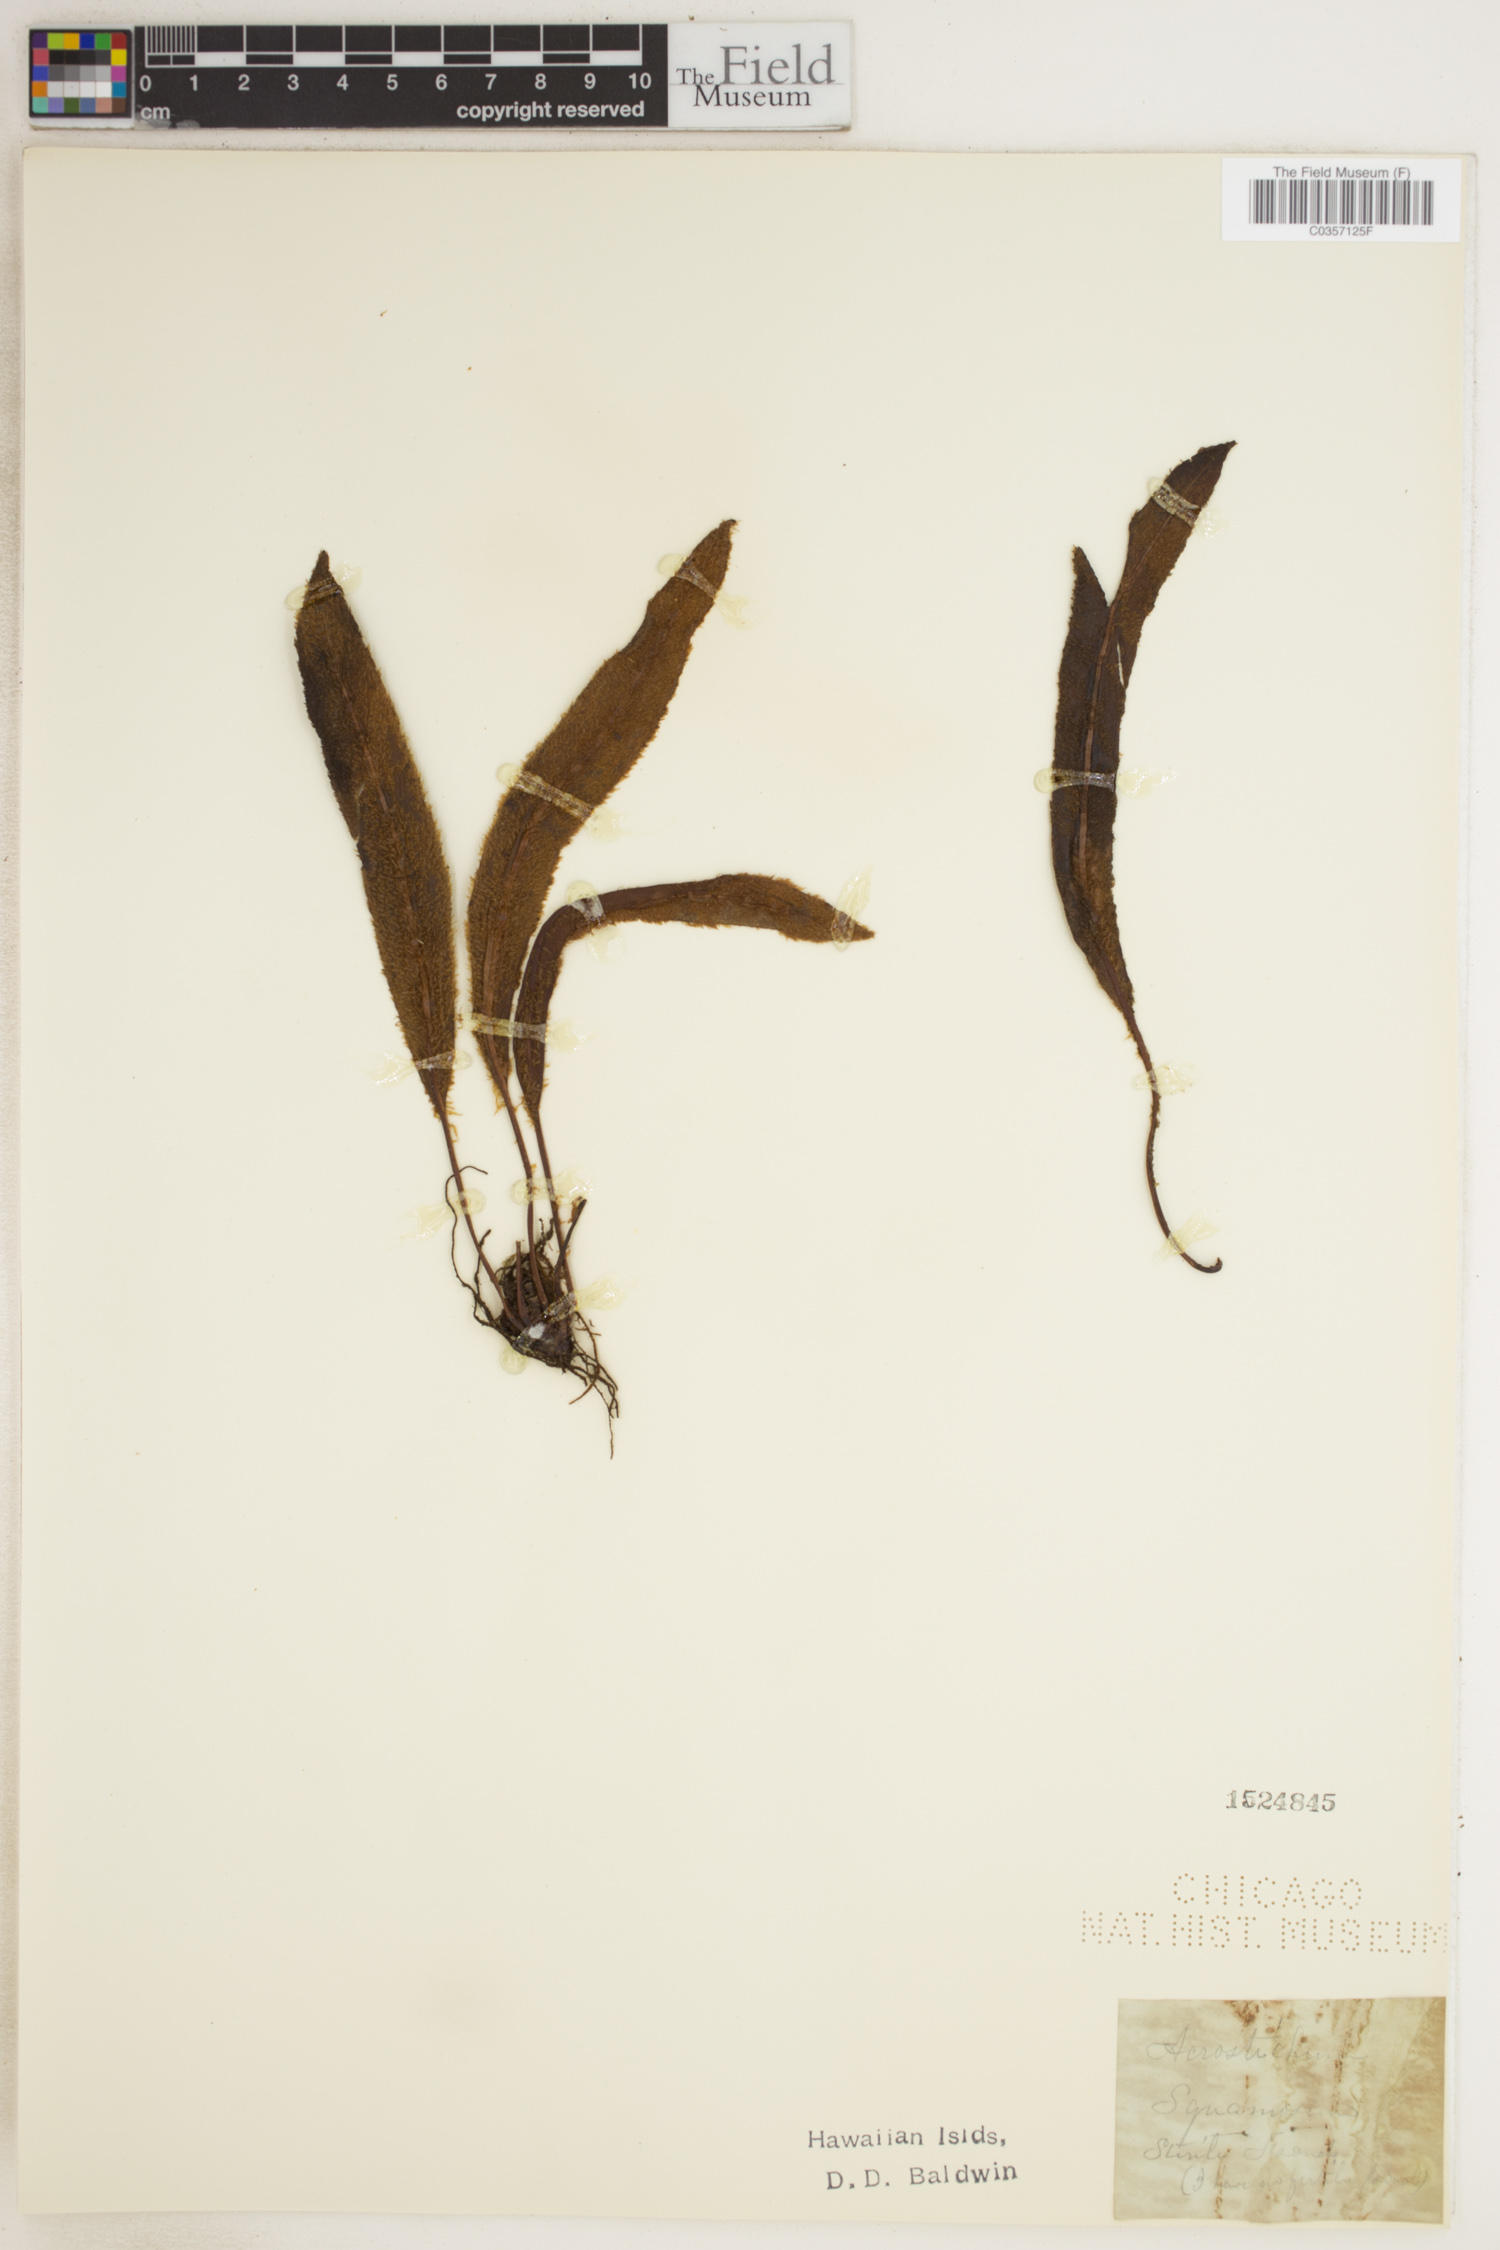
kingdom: Plantae
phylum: Tracheophyta
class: Polypodiopsida
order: Polypodiales
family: Dryopteridaceae
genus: Elaphoglossum
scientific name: Elaphoglossum lindenii
